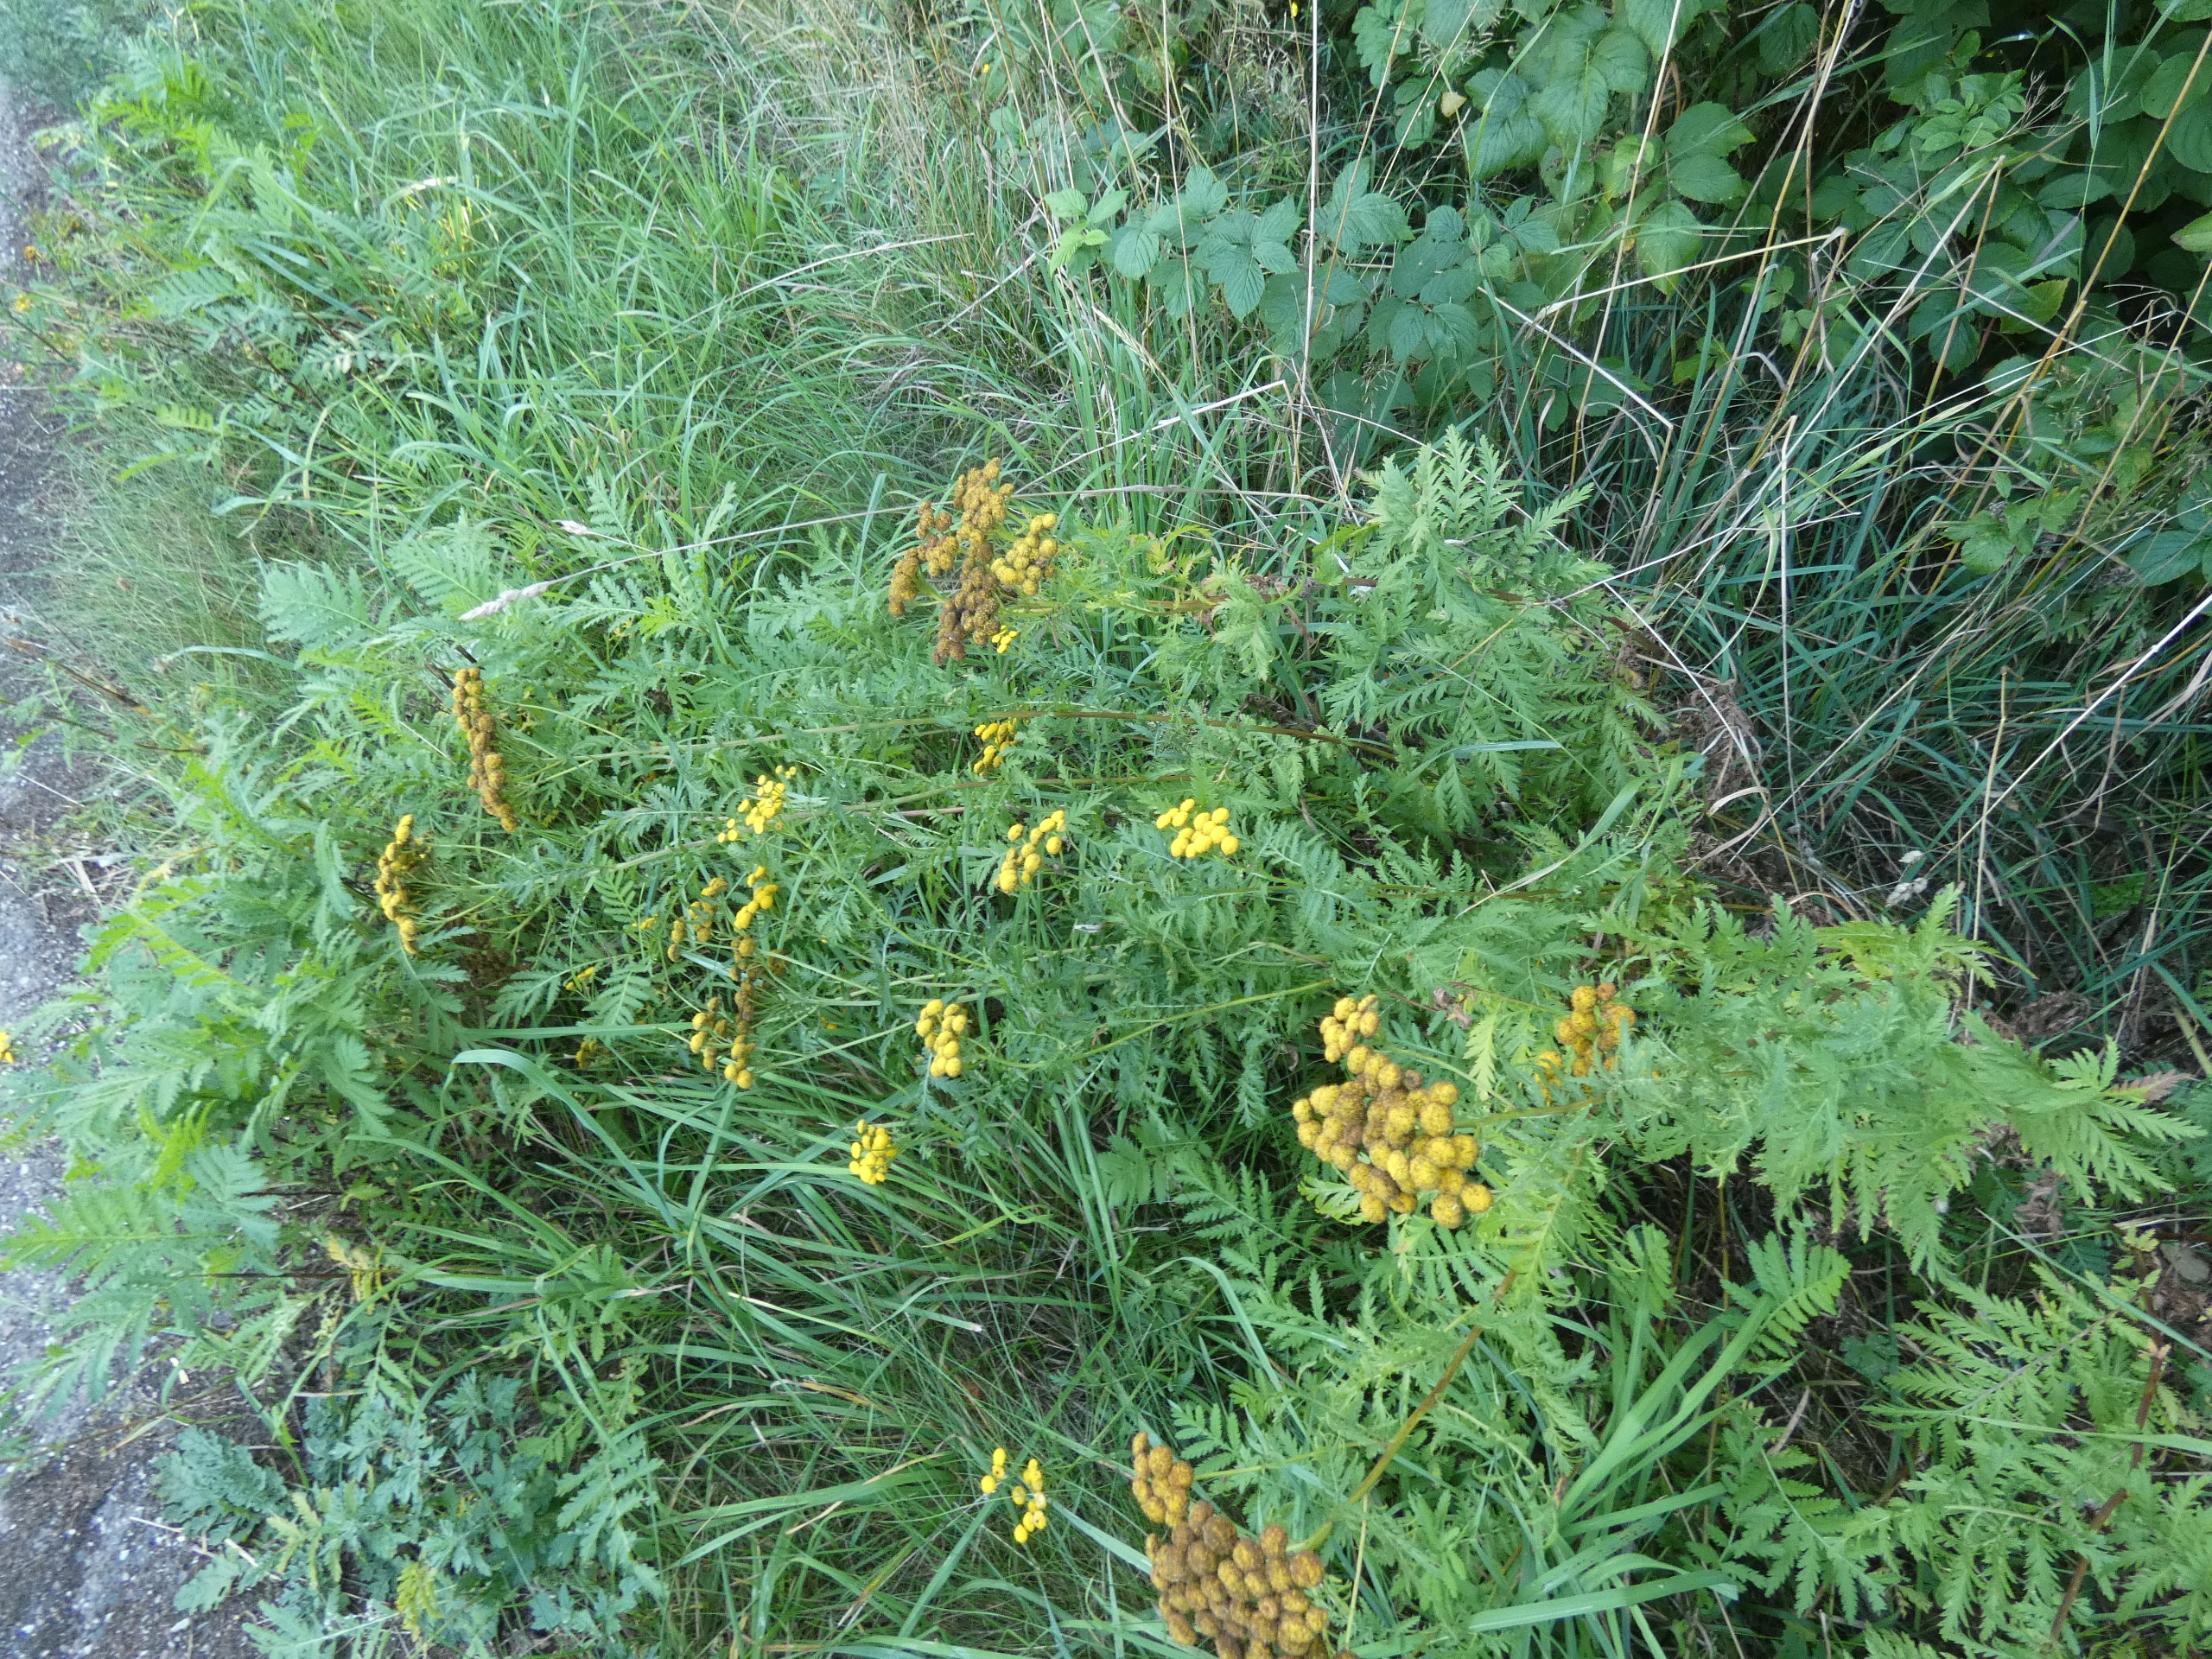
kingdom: Plantae
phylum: Tracheophyta
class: Magnoliopsida
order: Asterales
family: Asteraceae
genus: Tanacetum
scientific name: Tanacetum vulgare
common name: Rejnfan
